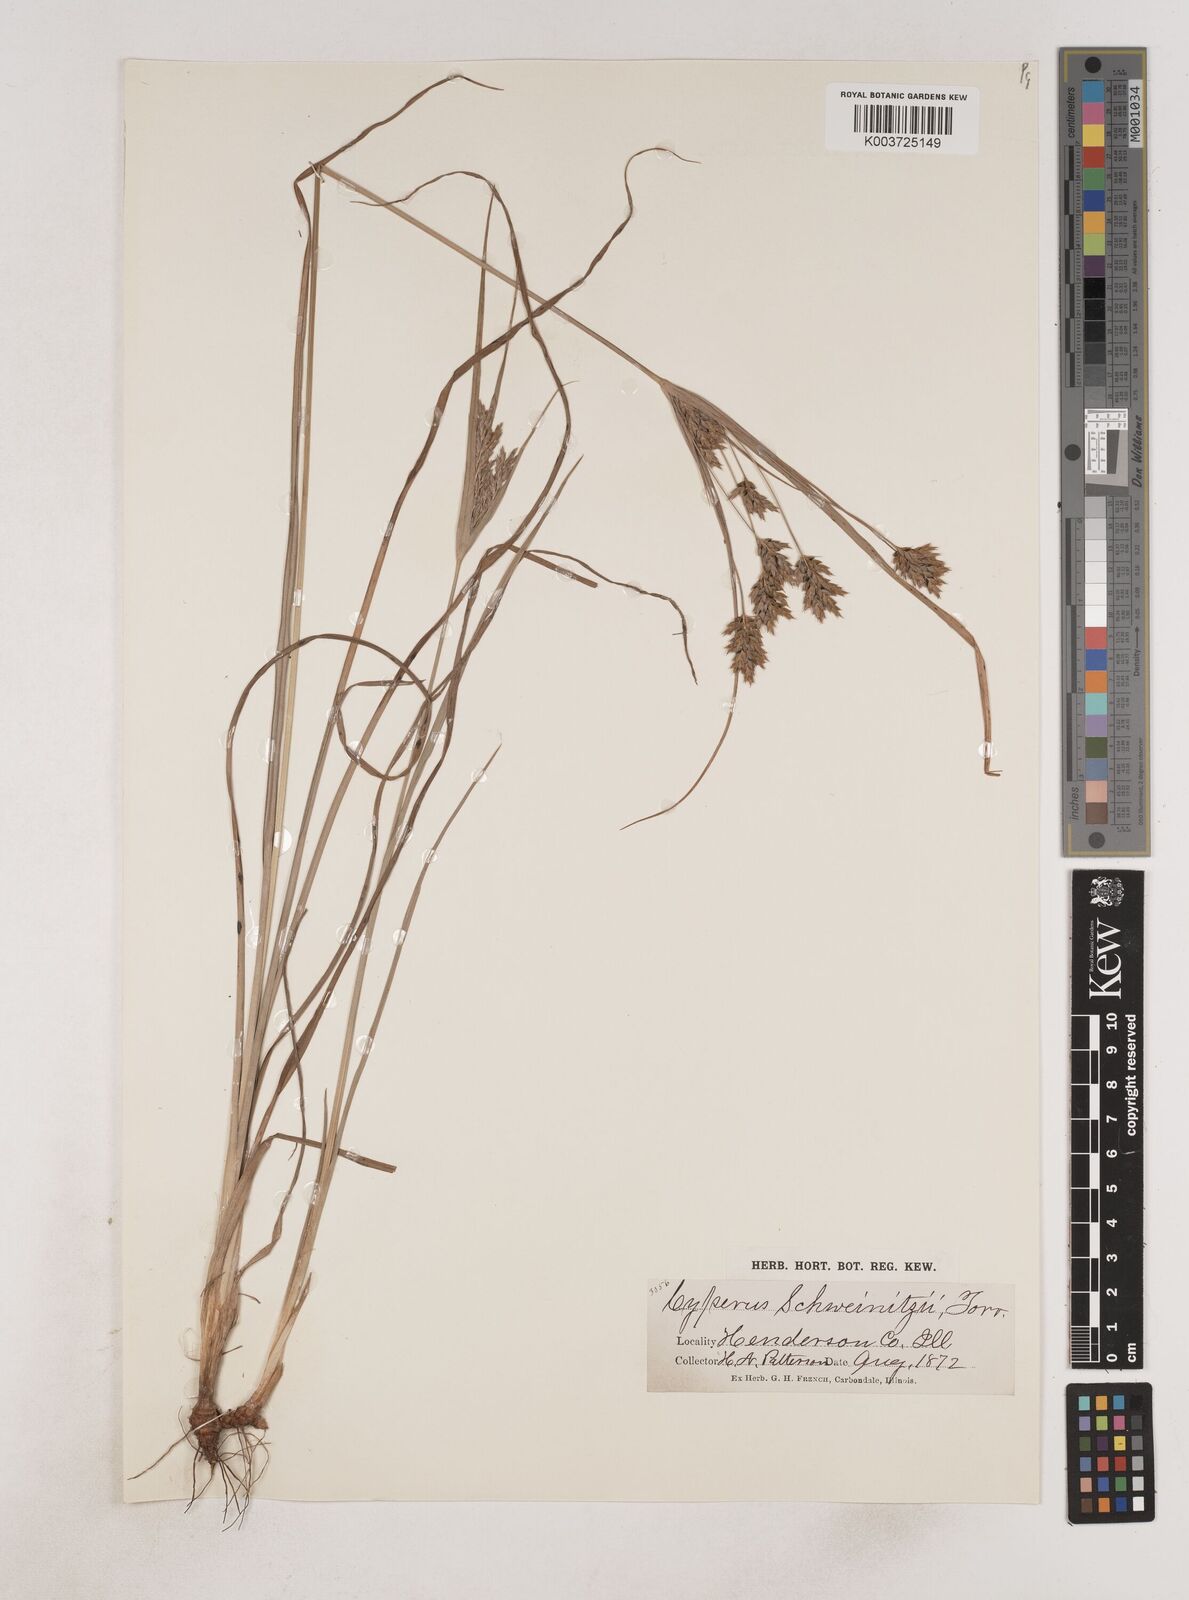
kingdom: Plantae
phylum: Tracheophyta
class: Liliopsida
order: Poales
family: Cyperaceae
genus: Cyperus
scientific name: Cyperus schweinitzii
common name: Schweinitz's cyperus
